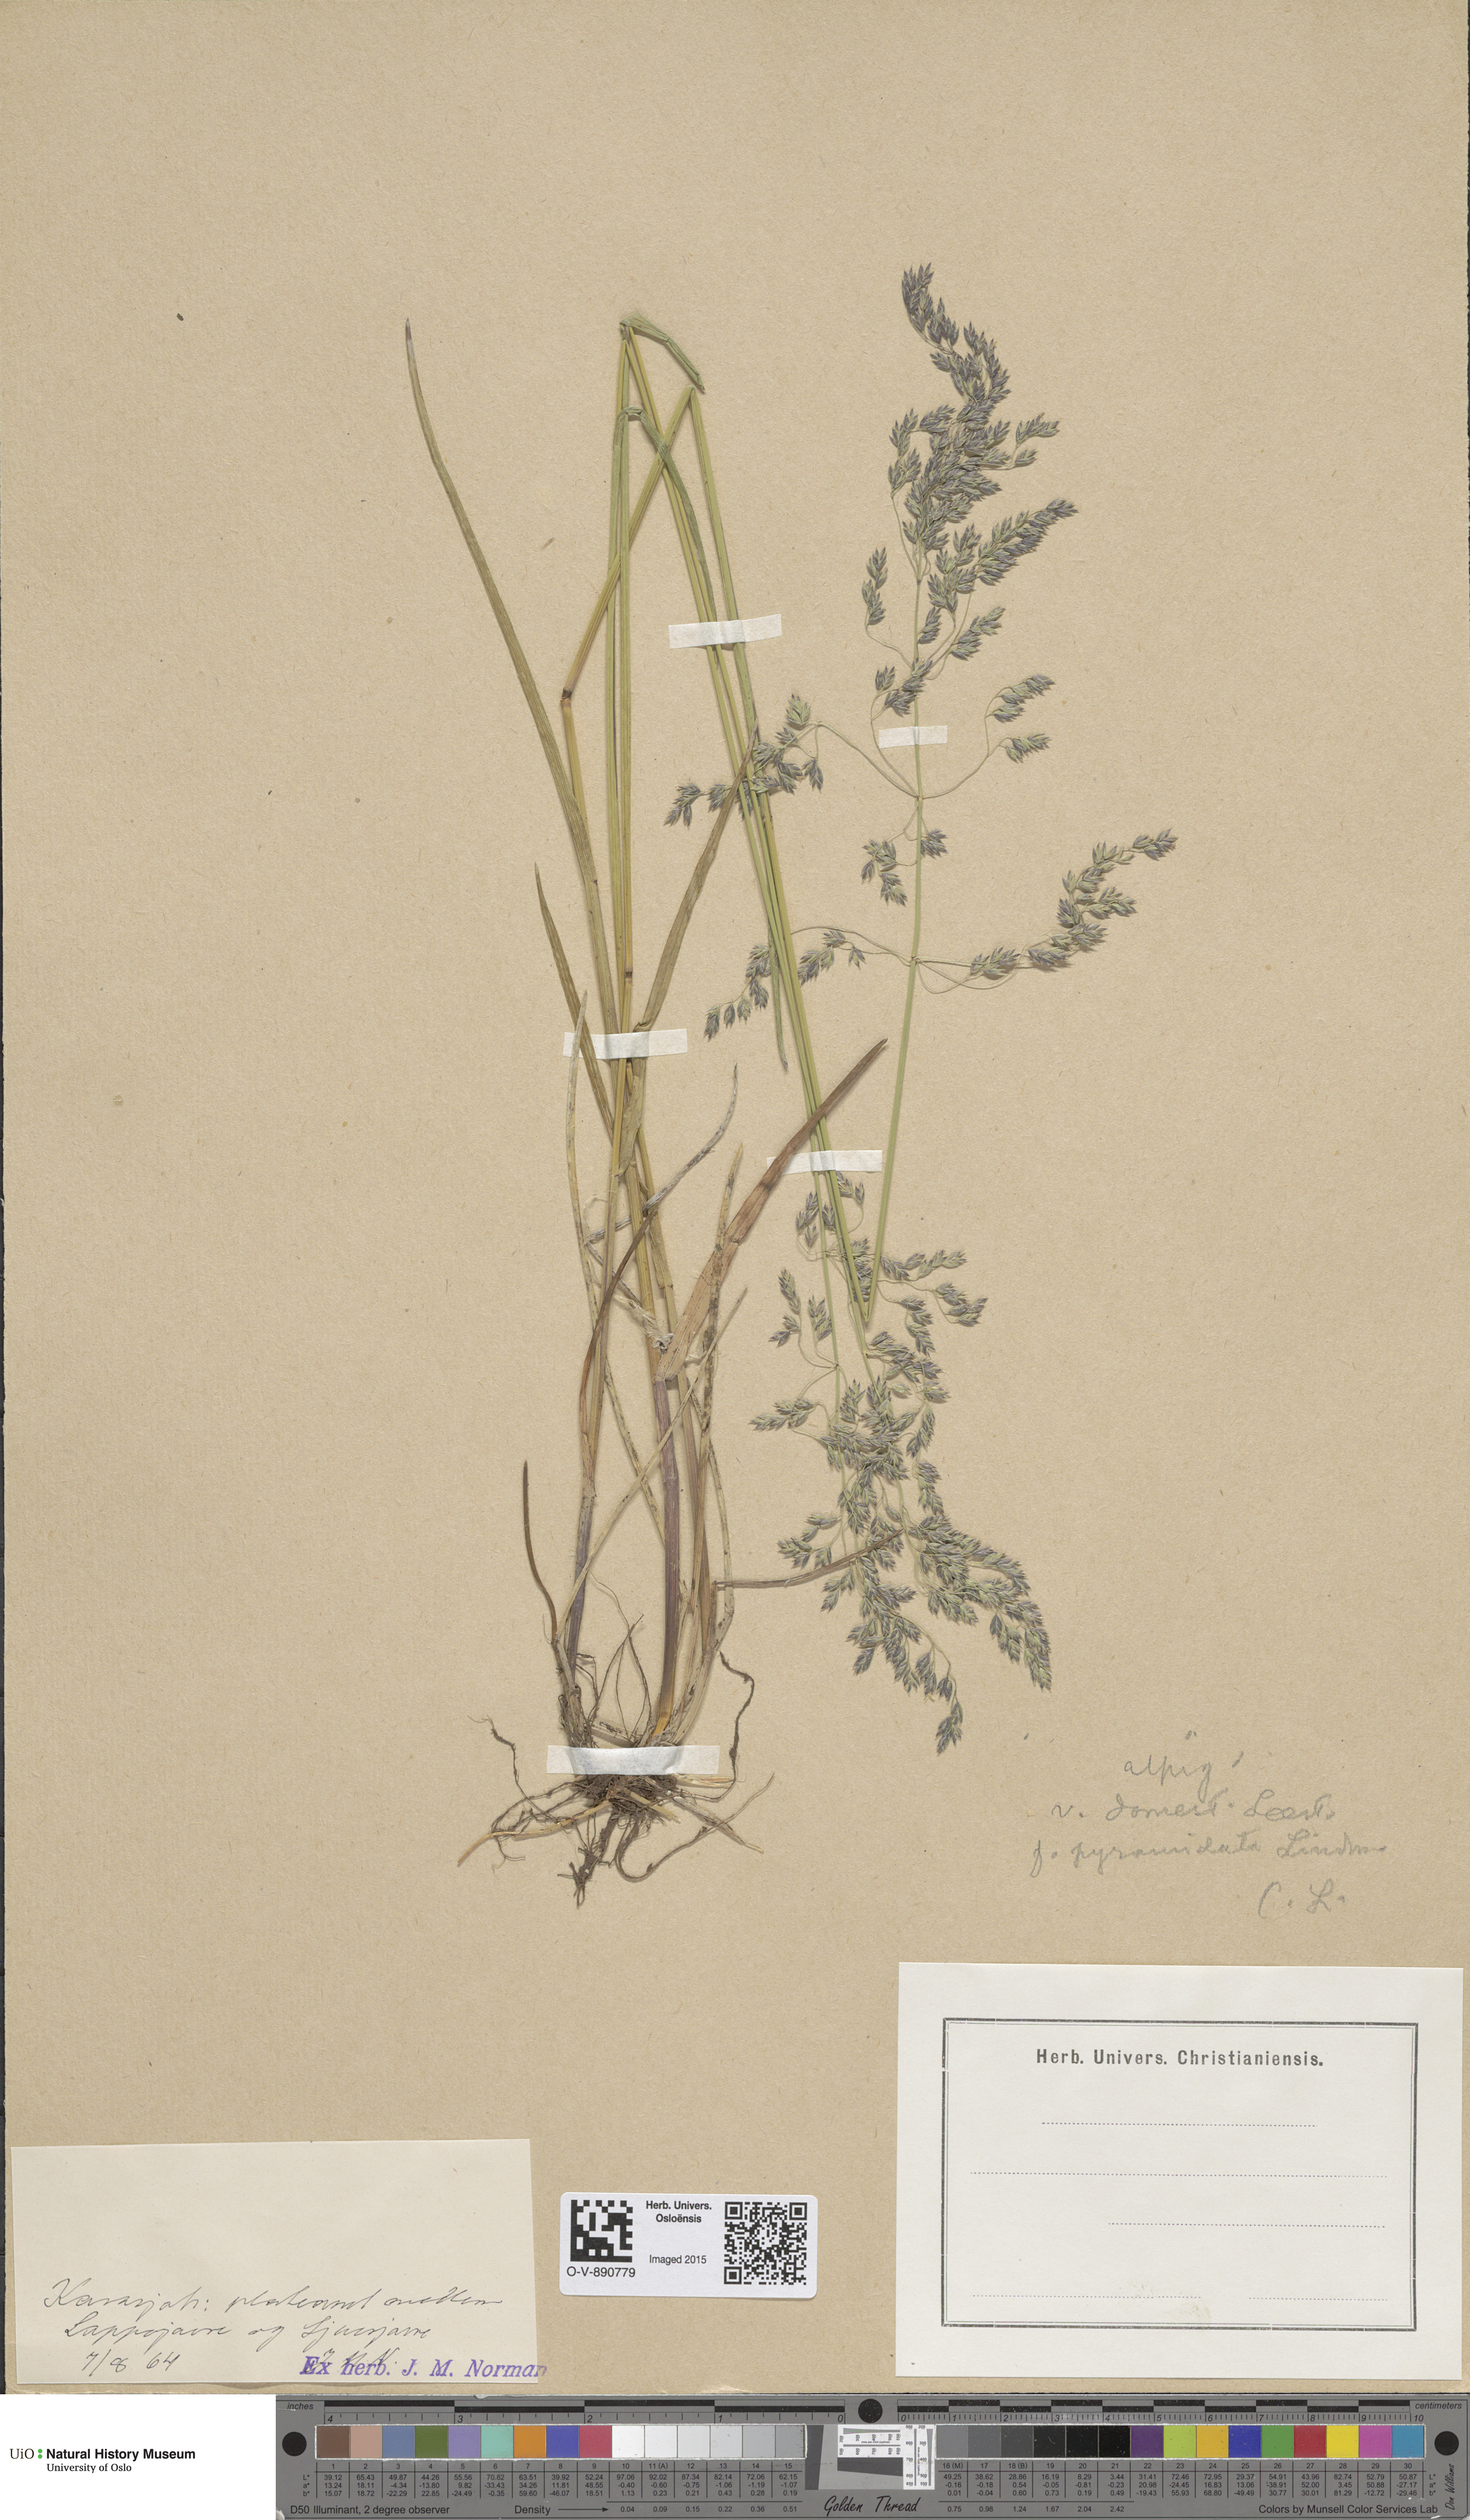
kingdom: Plantae
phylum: Tracheophyta
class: Liliopsida
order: Poales
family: Poaceae
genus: Poa
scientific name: Poa pratensis
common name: Kentucky bluegrass
